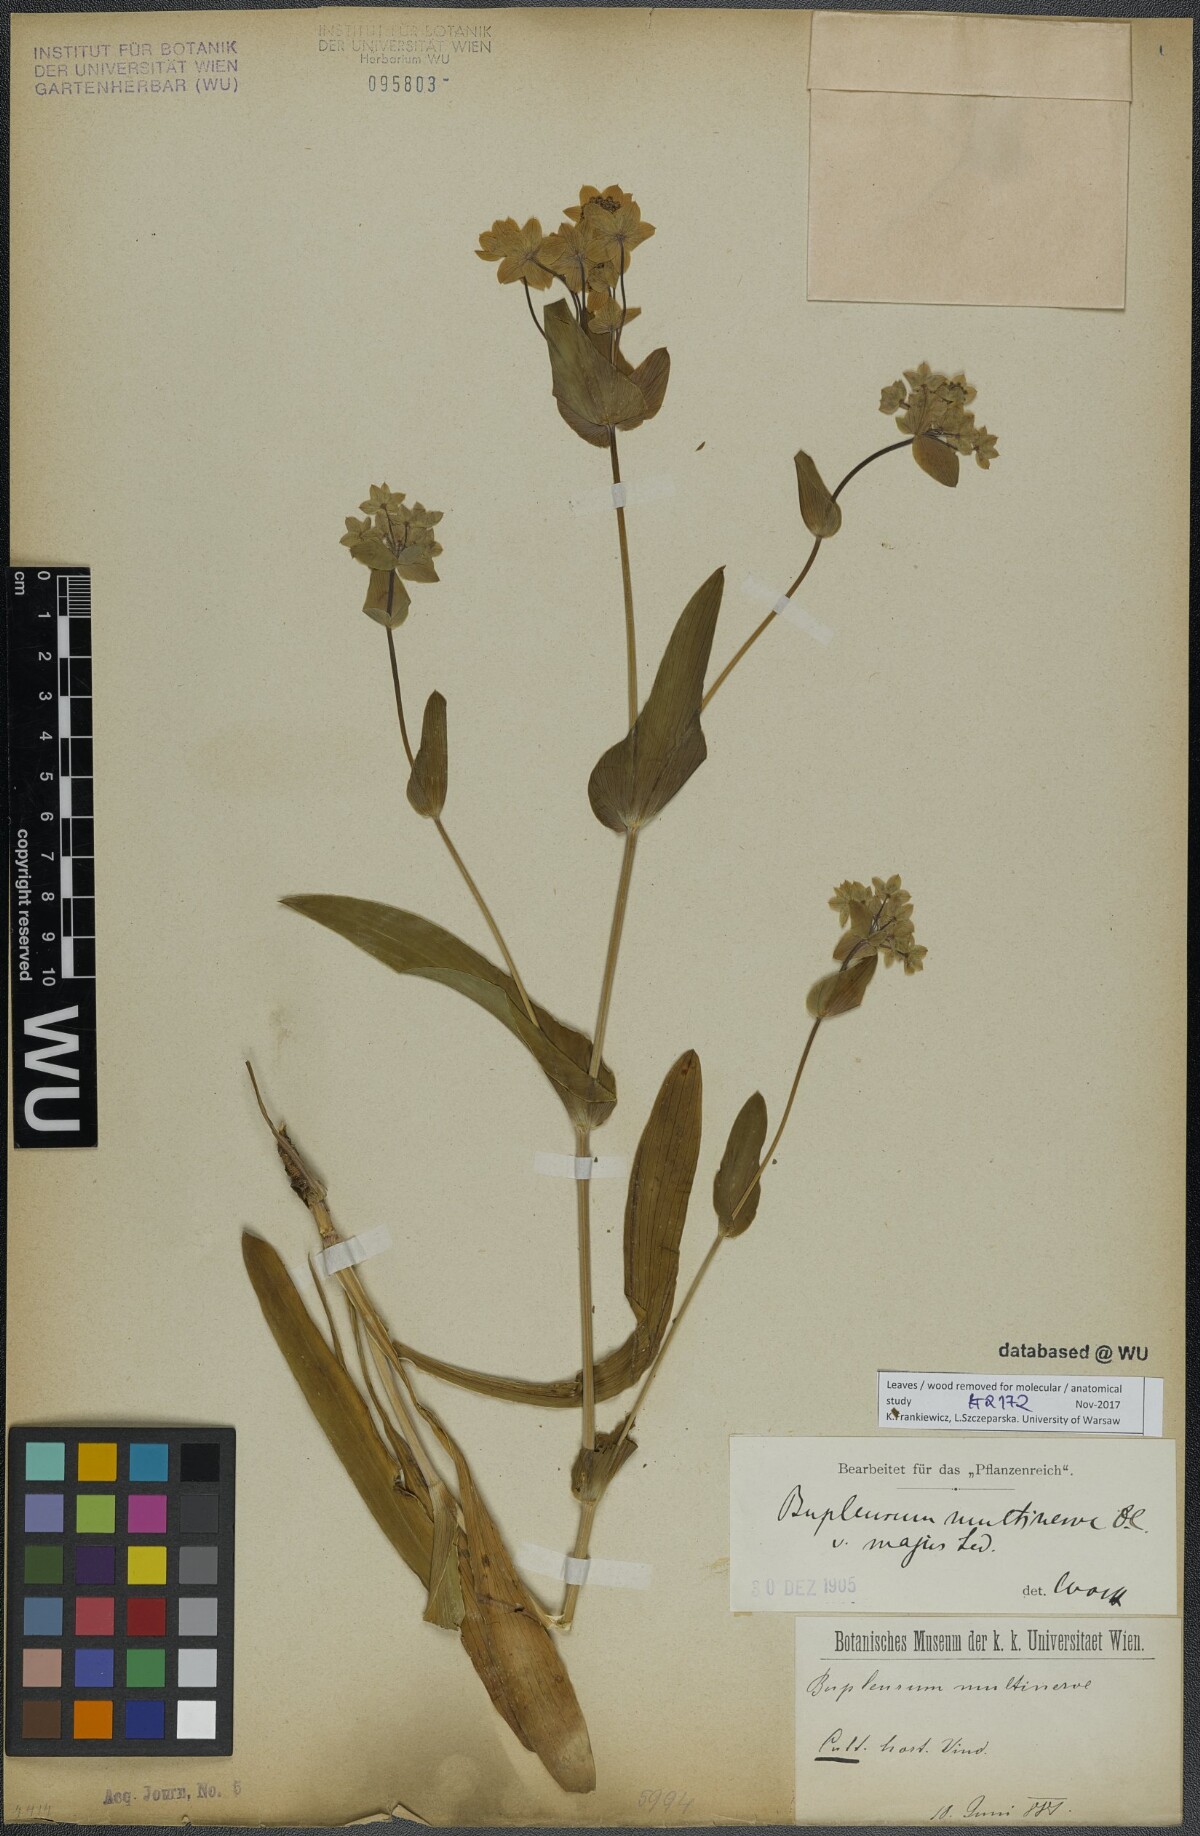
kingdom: Plantae
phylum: Tracheophyta
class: Magnoliopsida
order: Apiales
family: Apiaceae
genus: Bupleurum
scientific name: Bupleurum multinerve
